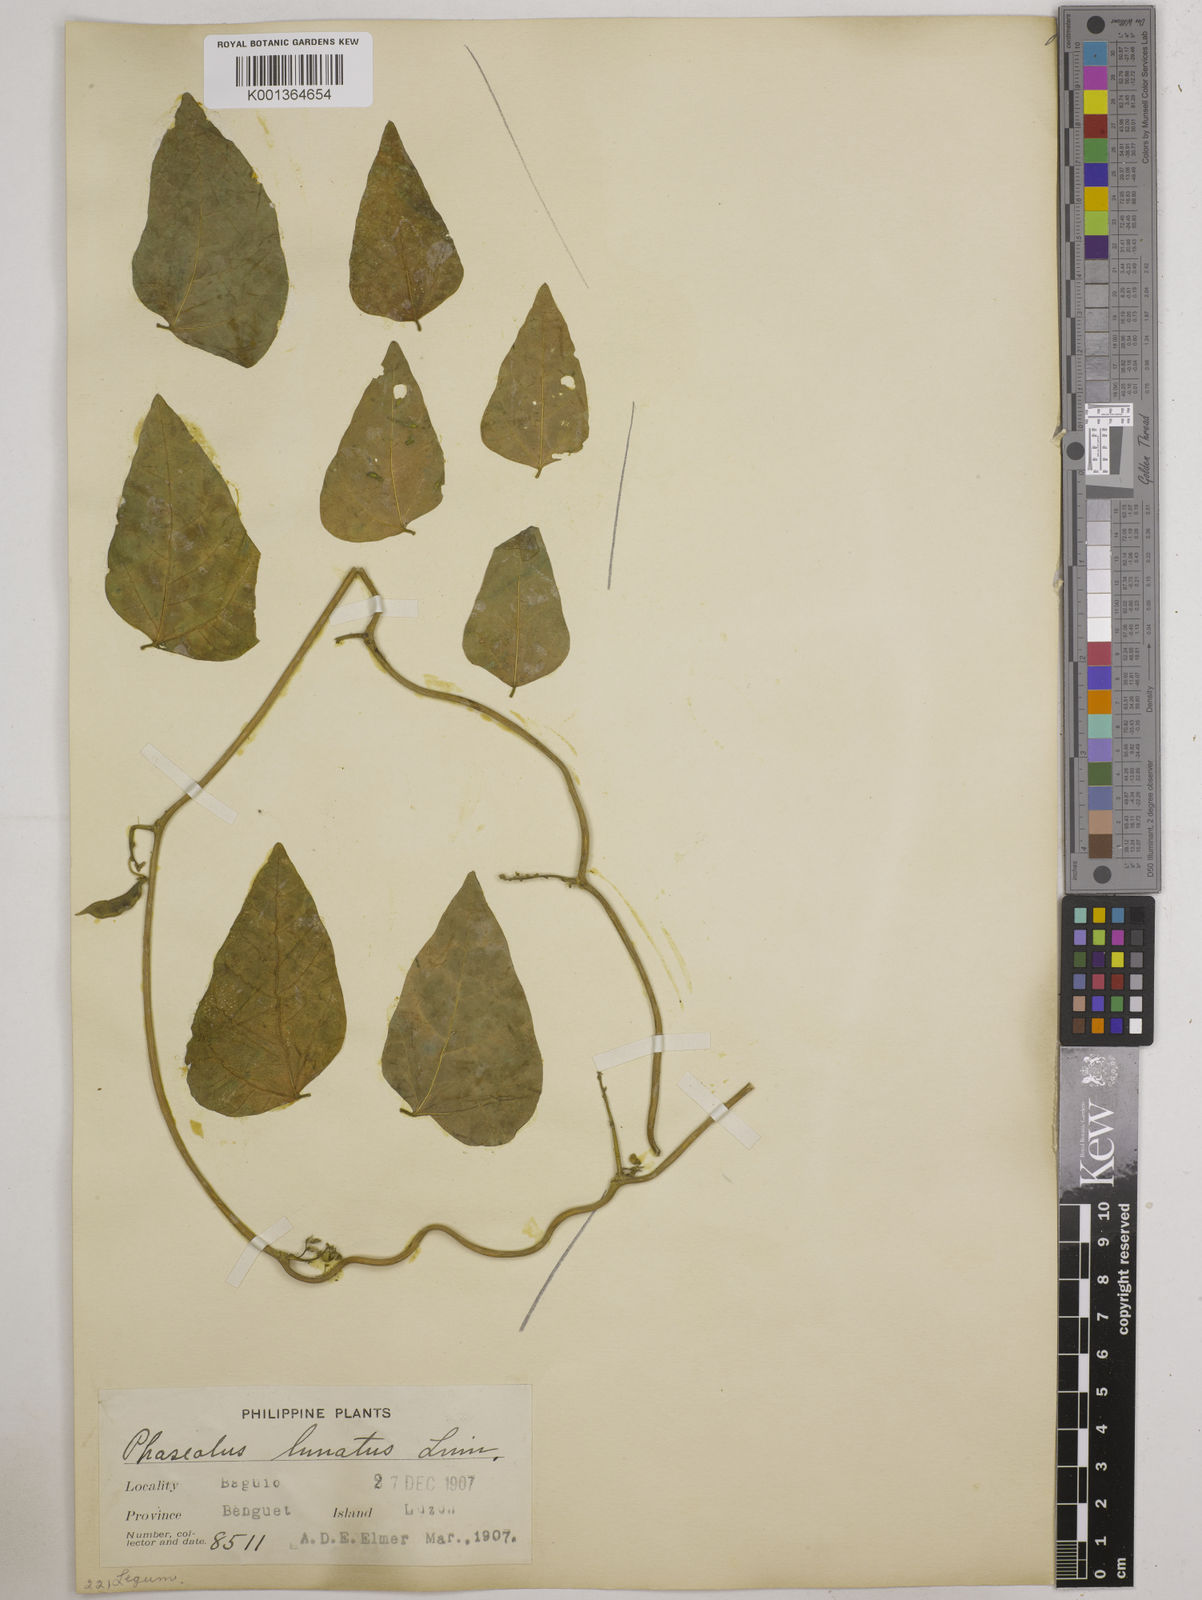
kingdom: Plantae
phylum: Tracheophyta
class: Magnoliopsida
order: Fabales
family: Fabaceae
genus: Phaseolus
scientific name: Phaseolus lunatus
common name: Sieva bean
